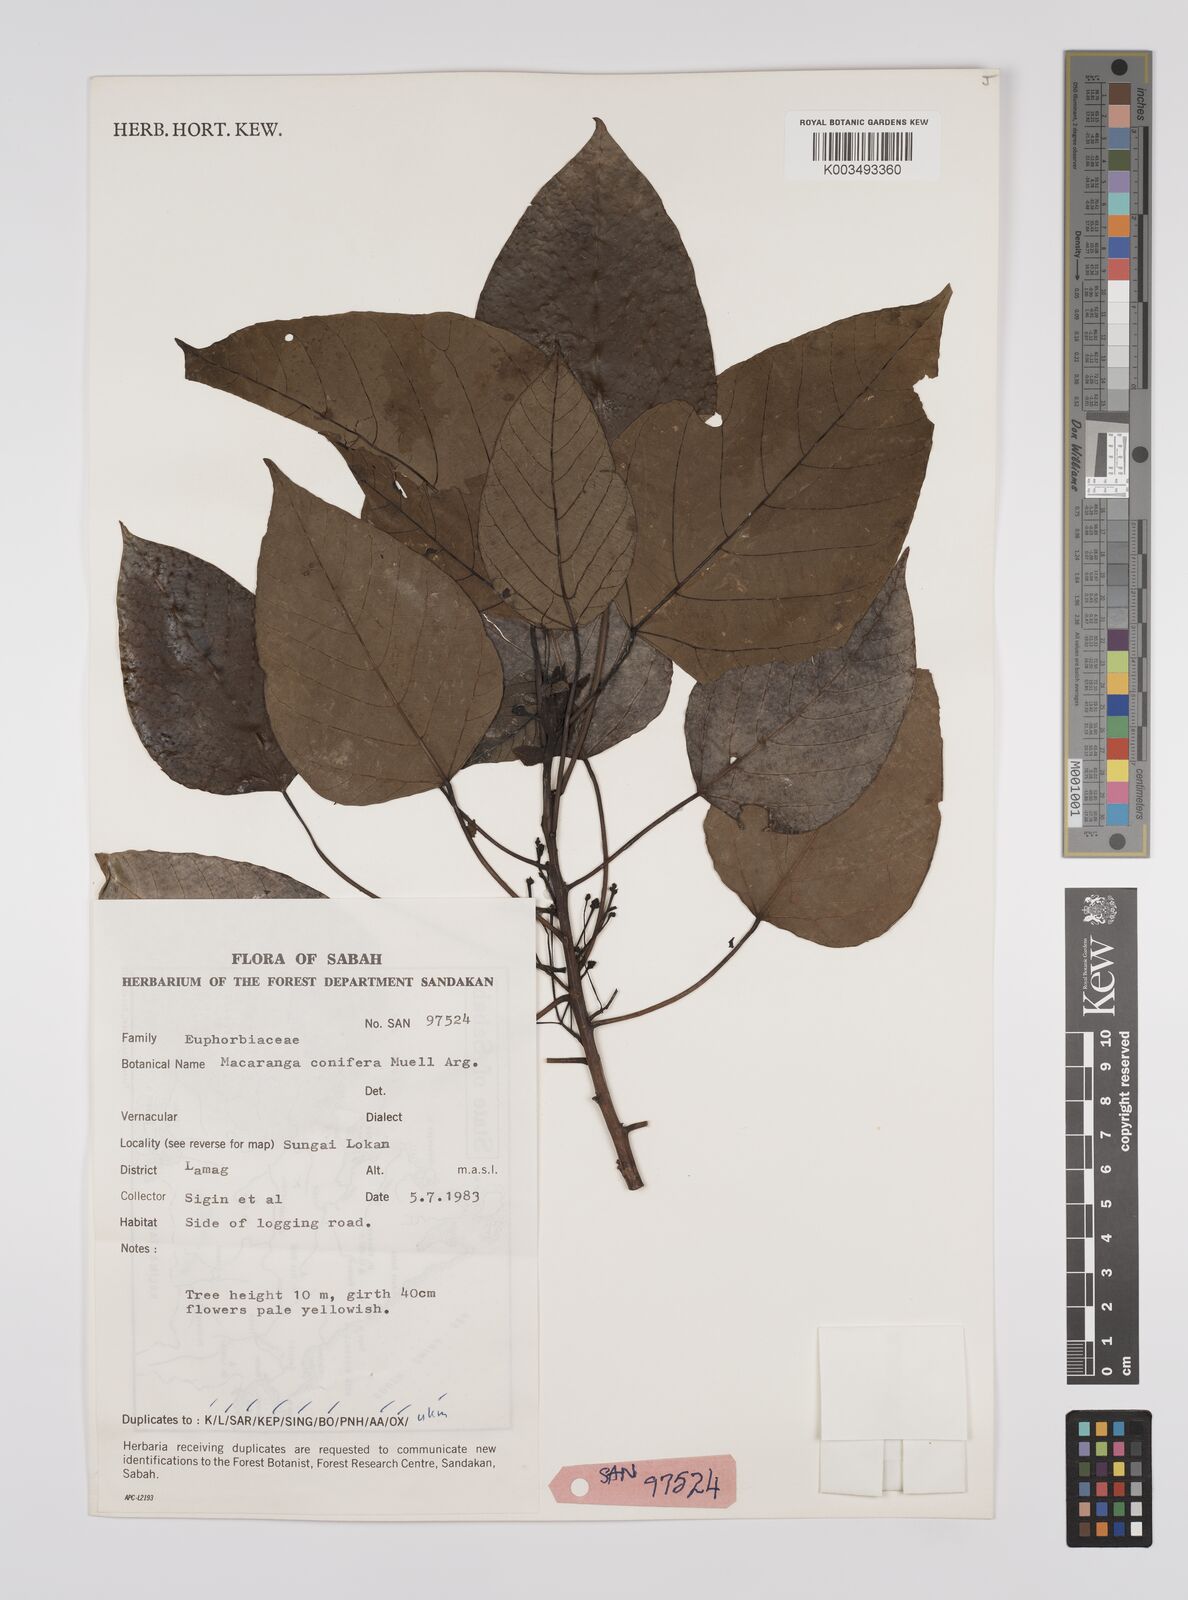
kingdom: Plantae
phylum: Tracheophyta
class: Magnoliopsida
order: Malpighiales
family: Euphorbiaceae
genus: Macaranga
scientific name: Macaranga conifera
